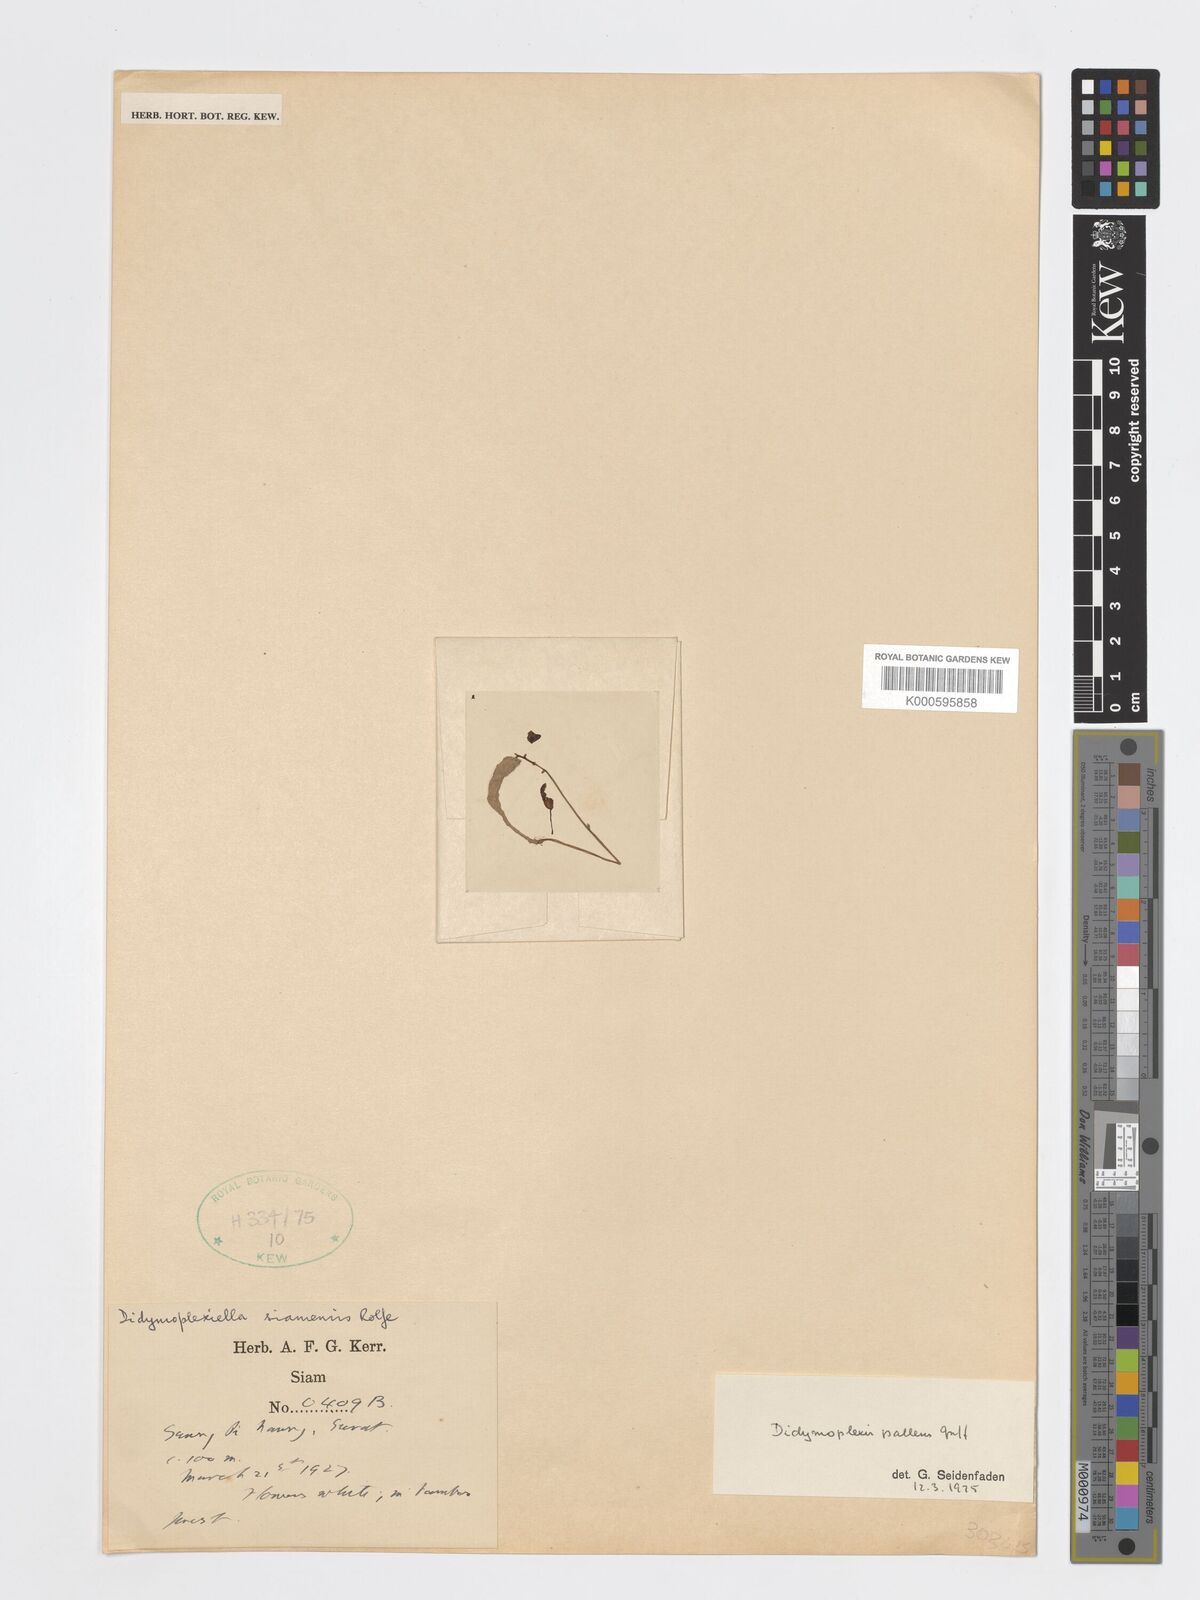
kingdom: Plantae
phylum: Tracheophyta
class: Liliopsida
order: Asparagales
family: Orchidaceae
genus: Didymoplexis
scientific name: Didymoplexis pallens
